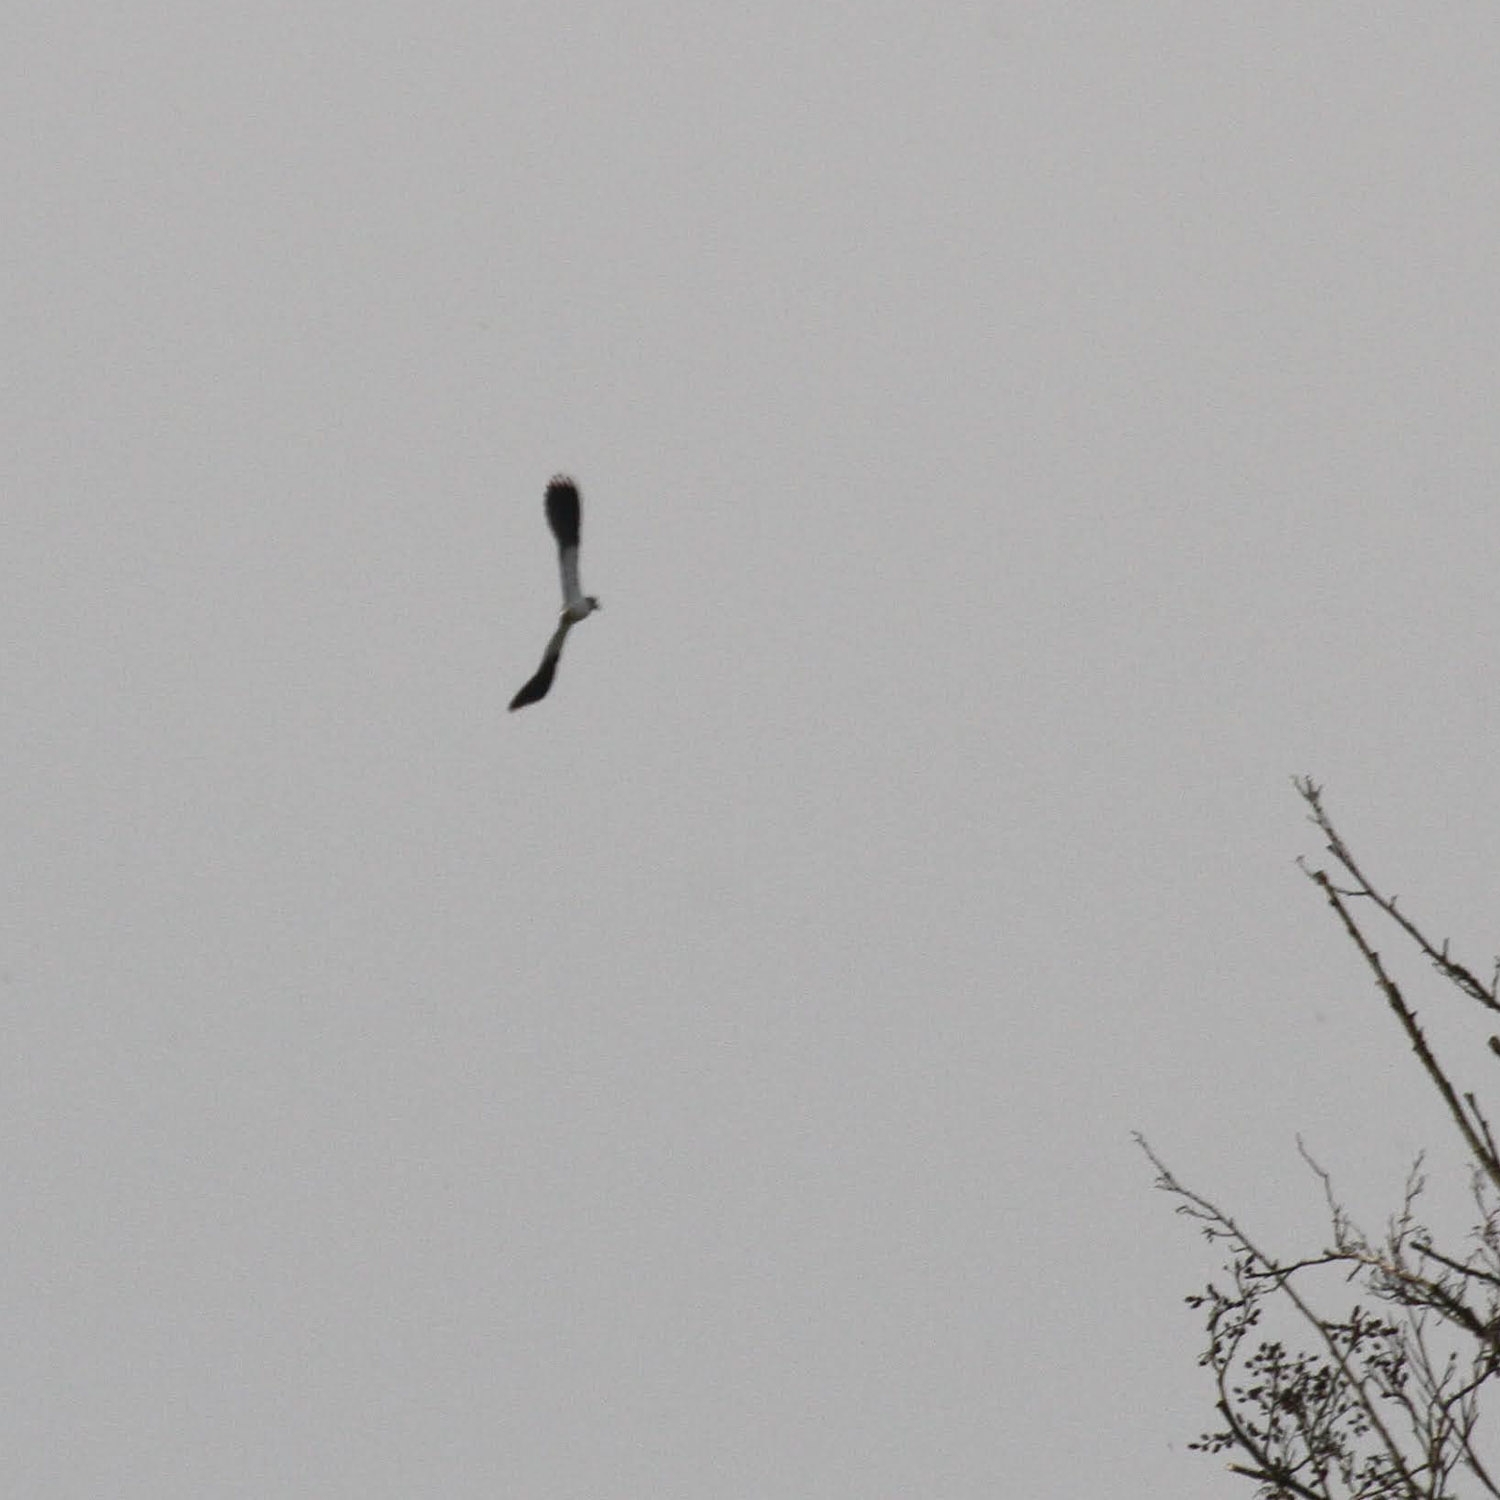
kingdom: Animalia
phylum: Chordata
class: Aves
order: Charadriiformes
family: Charadriidae
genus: Vanellus
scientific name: Vanellus vanellus
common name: Vibe
